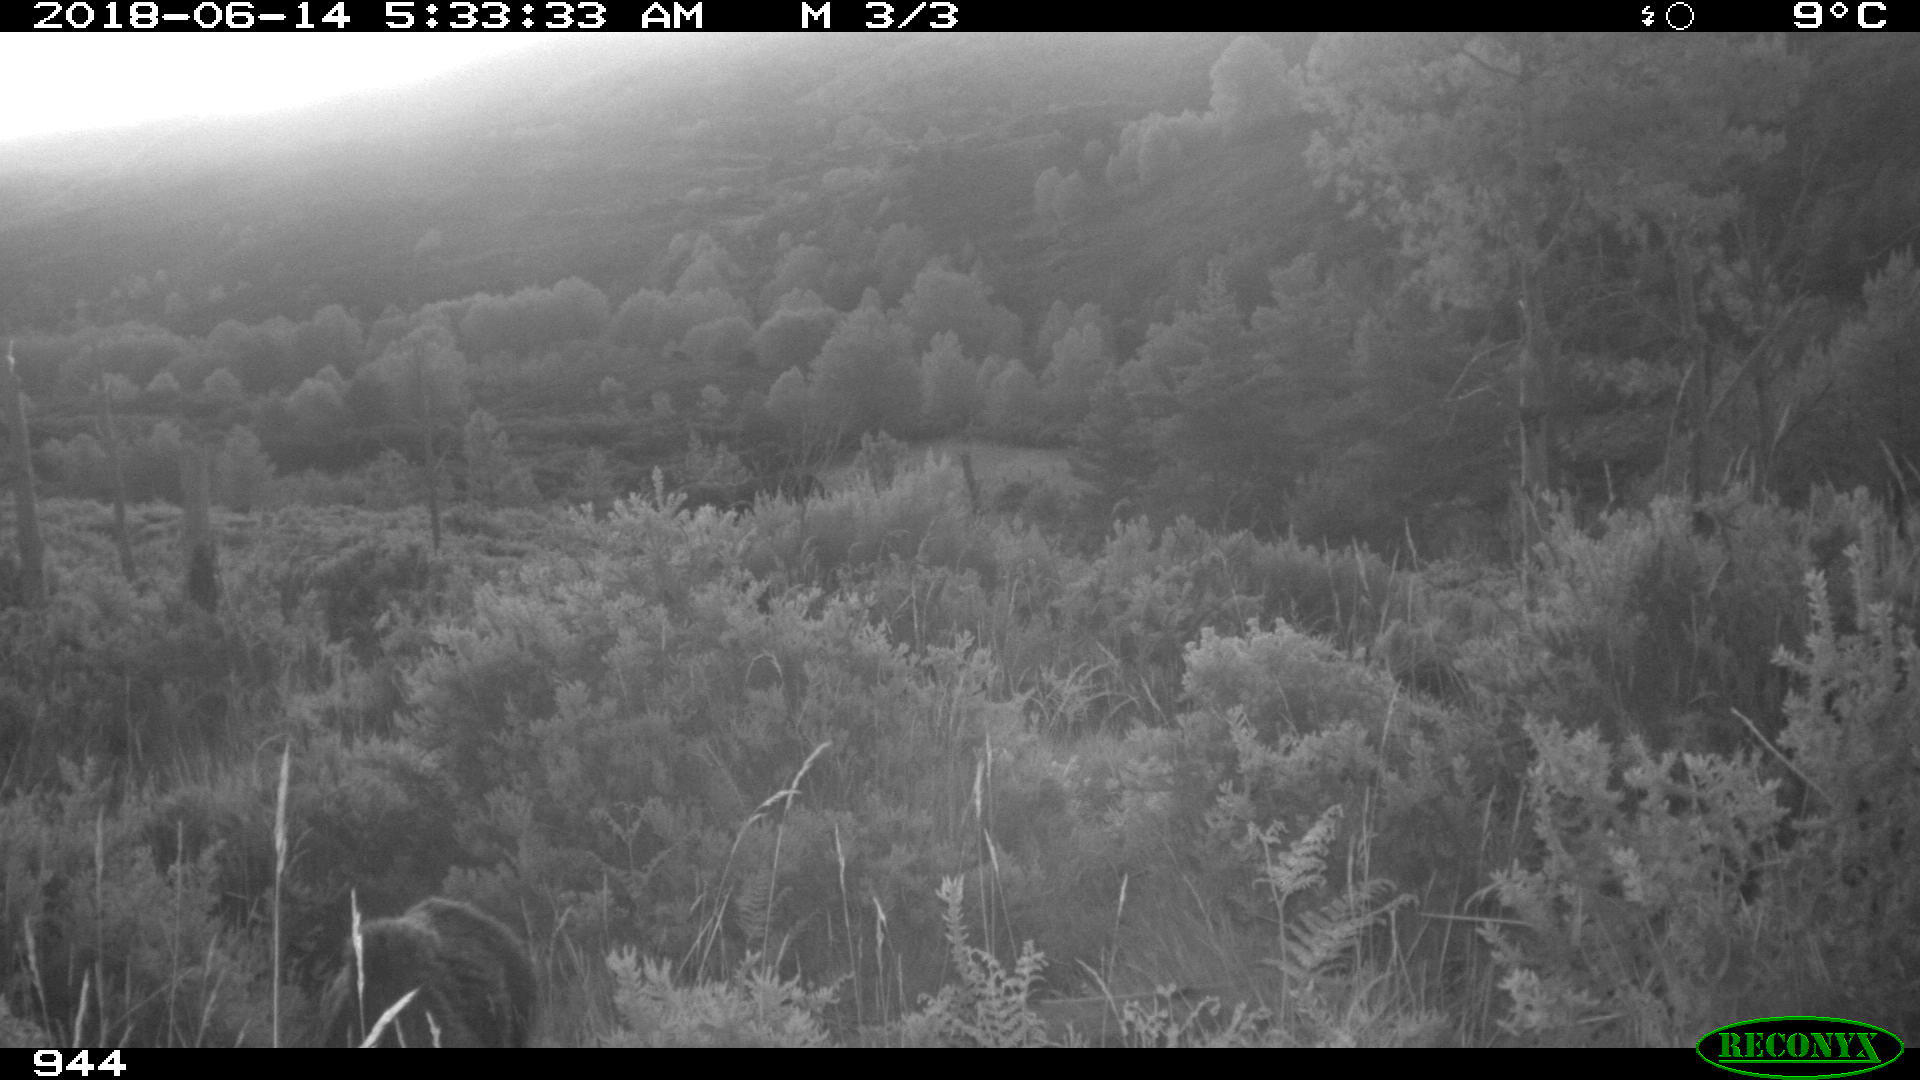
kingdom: Animalia
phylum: Chordata
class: Mammalia
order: Artiodactyla
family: Suidae
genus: Sus
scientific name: Sus scrofa
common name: Wild boar
